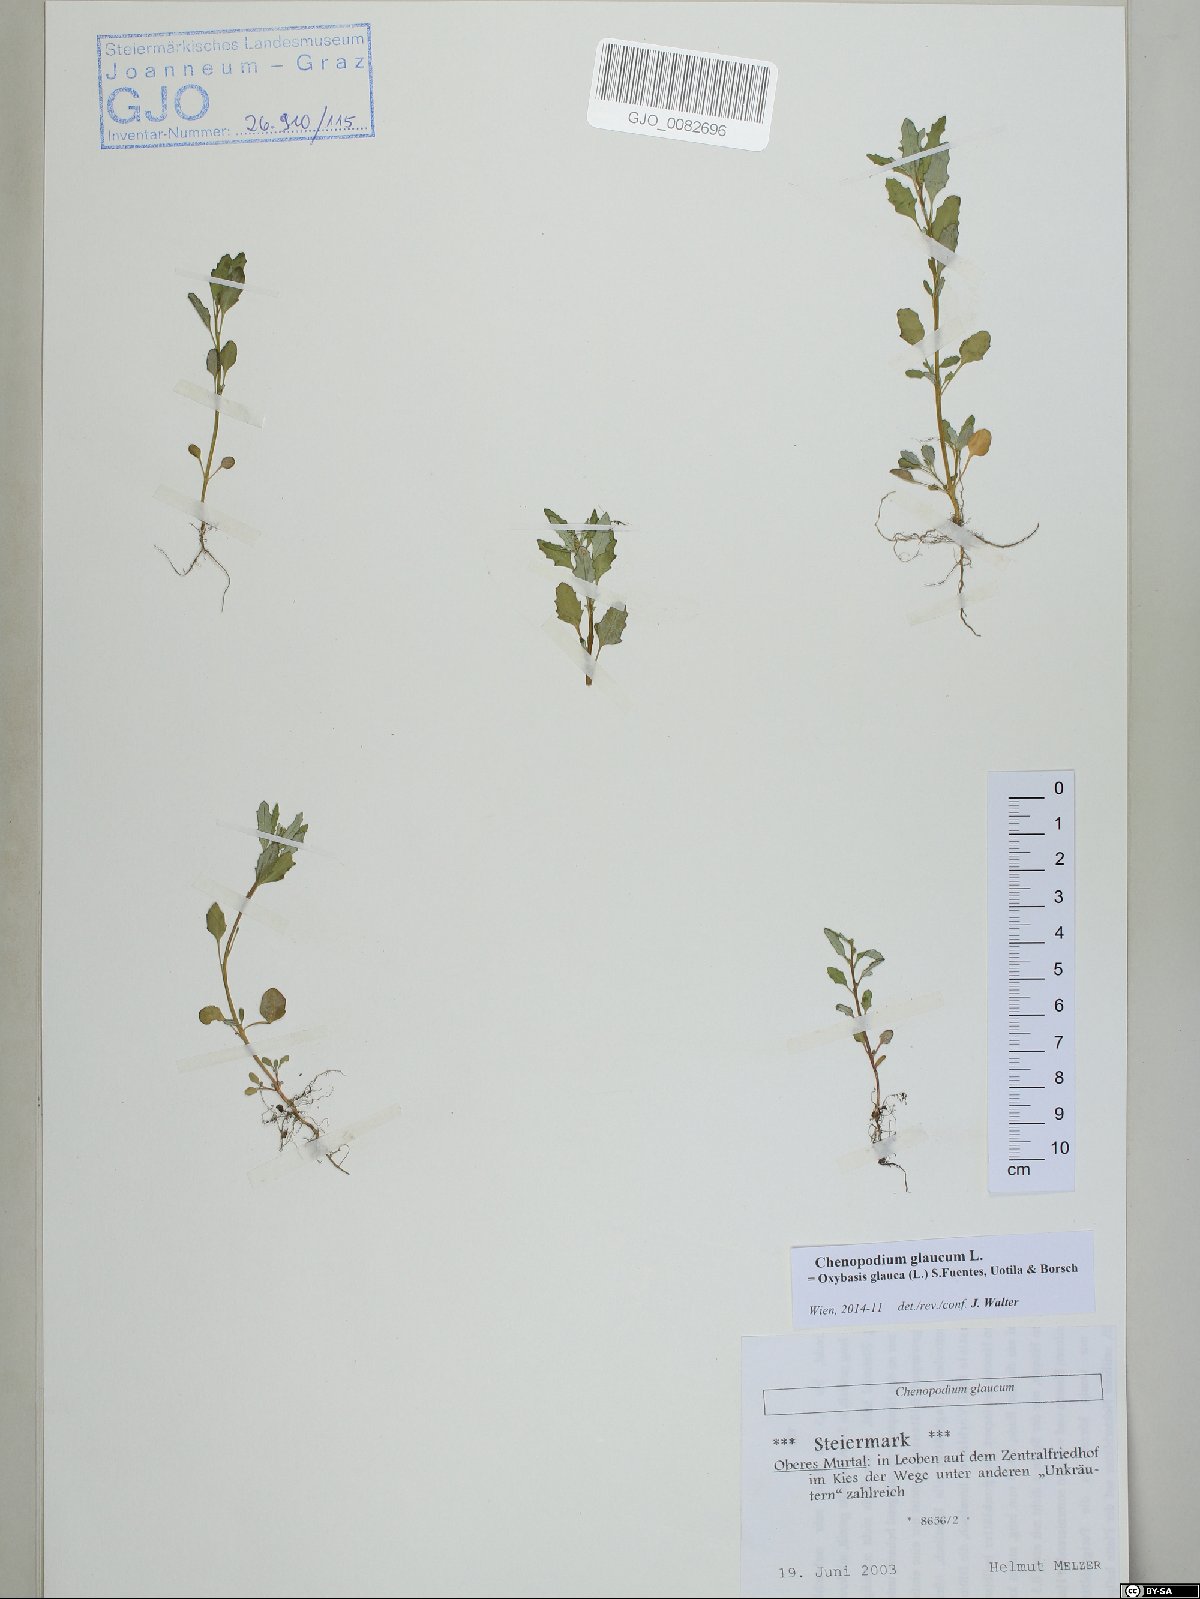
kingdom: Plantae
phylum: Tracheophyta
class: Magnoliopsida
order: Caryophyllales
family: Amaranthaceae
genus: Oxybasis
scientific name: Oxybasis glauca
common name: Glaucous goosefoot
